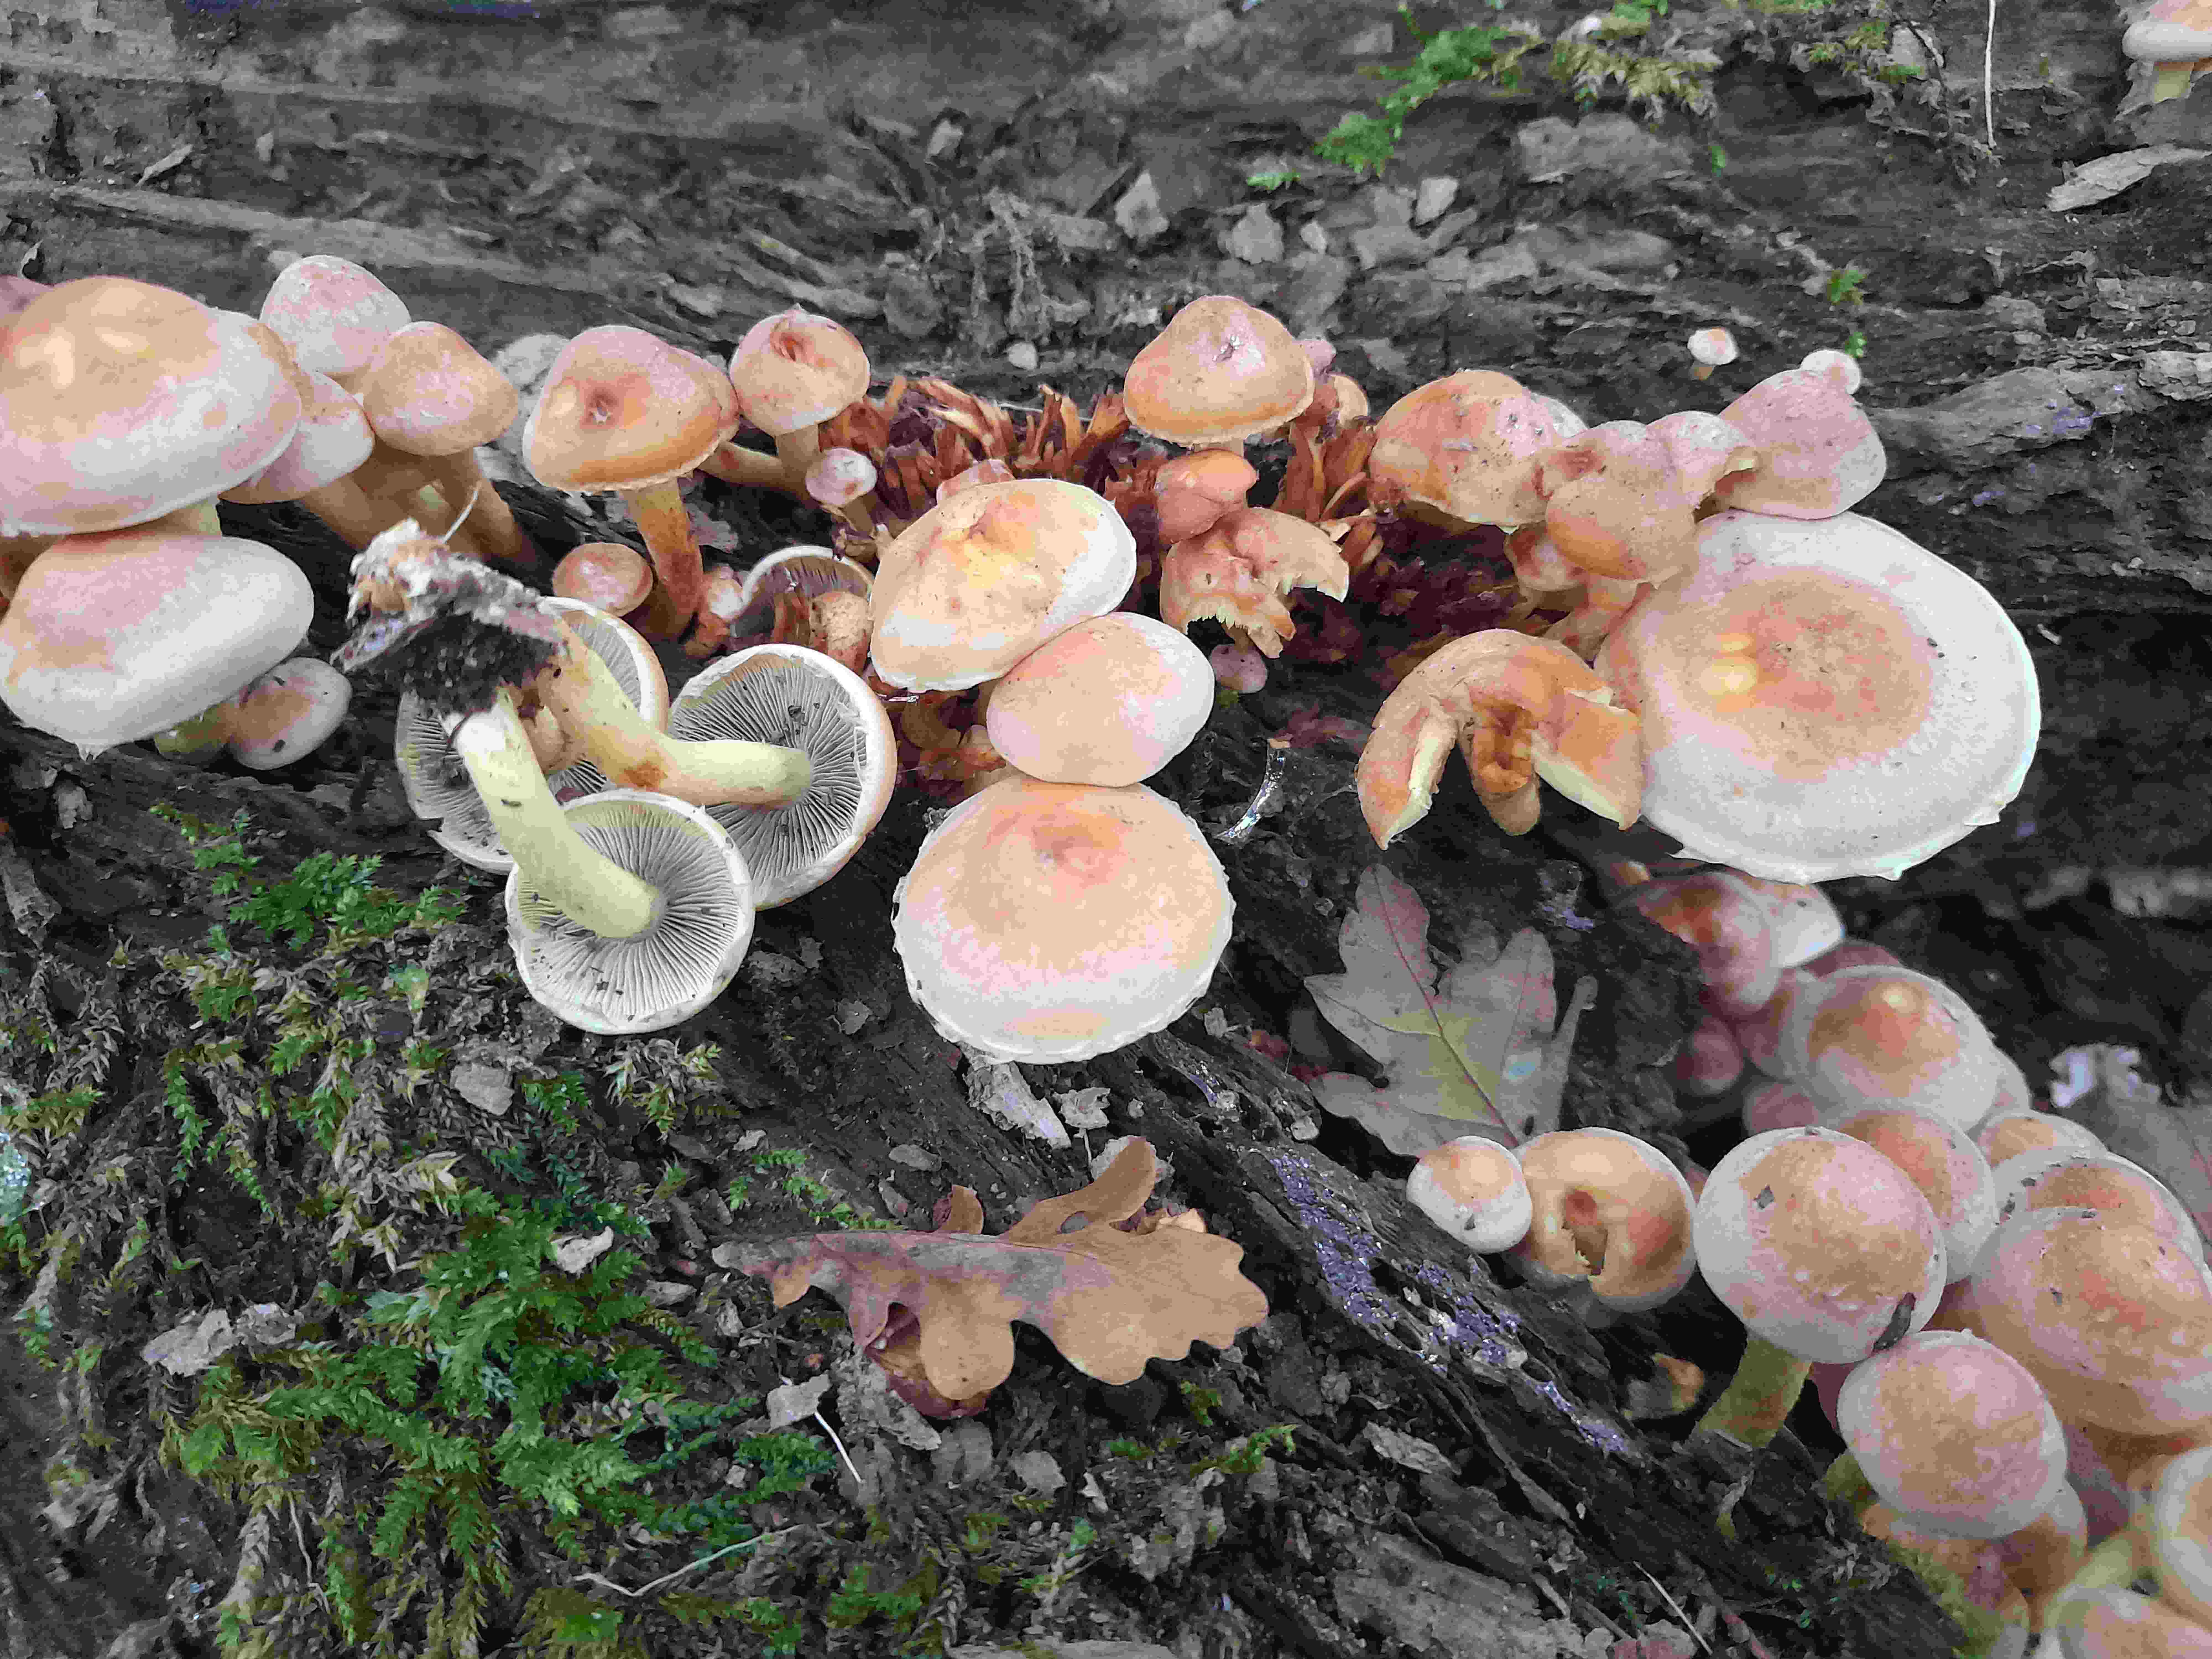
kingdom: Fungi
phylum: Basidiomycota
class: Agaricomycetes
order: Agaricales
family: Strophariaceae
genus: Hypholoma
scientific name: Hypholoma fasciculare
